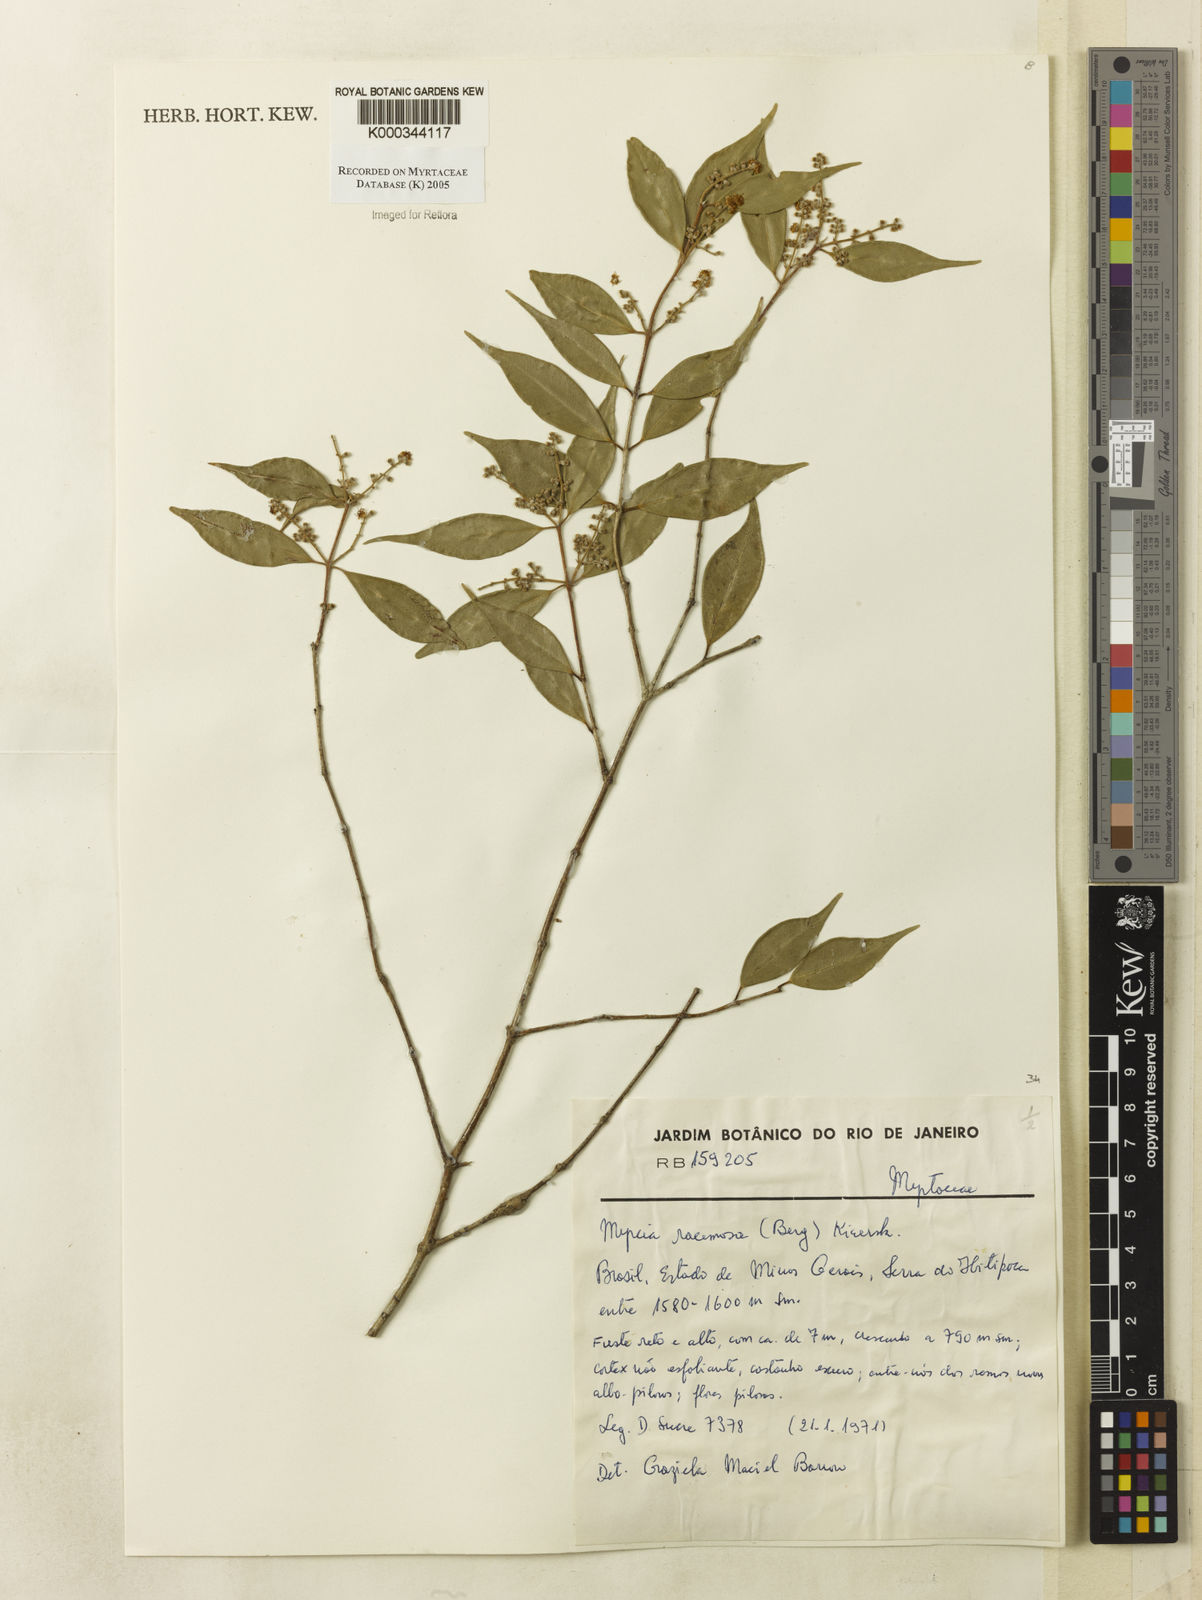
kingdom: Plantae
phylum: Tracheophyta
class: Magnoliopsida
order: Myrtales
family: Myrtaceae
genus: Myrcia
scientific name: Myrcia racemosa
